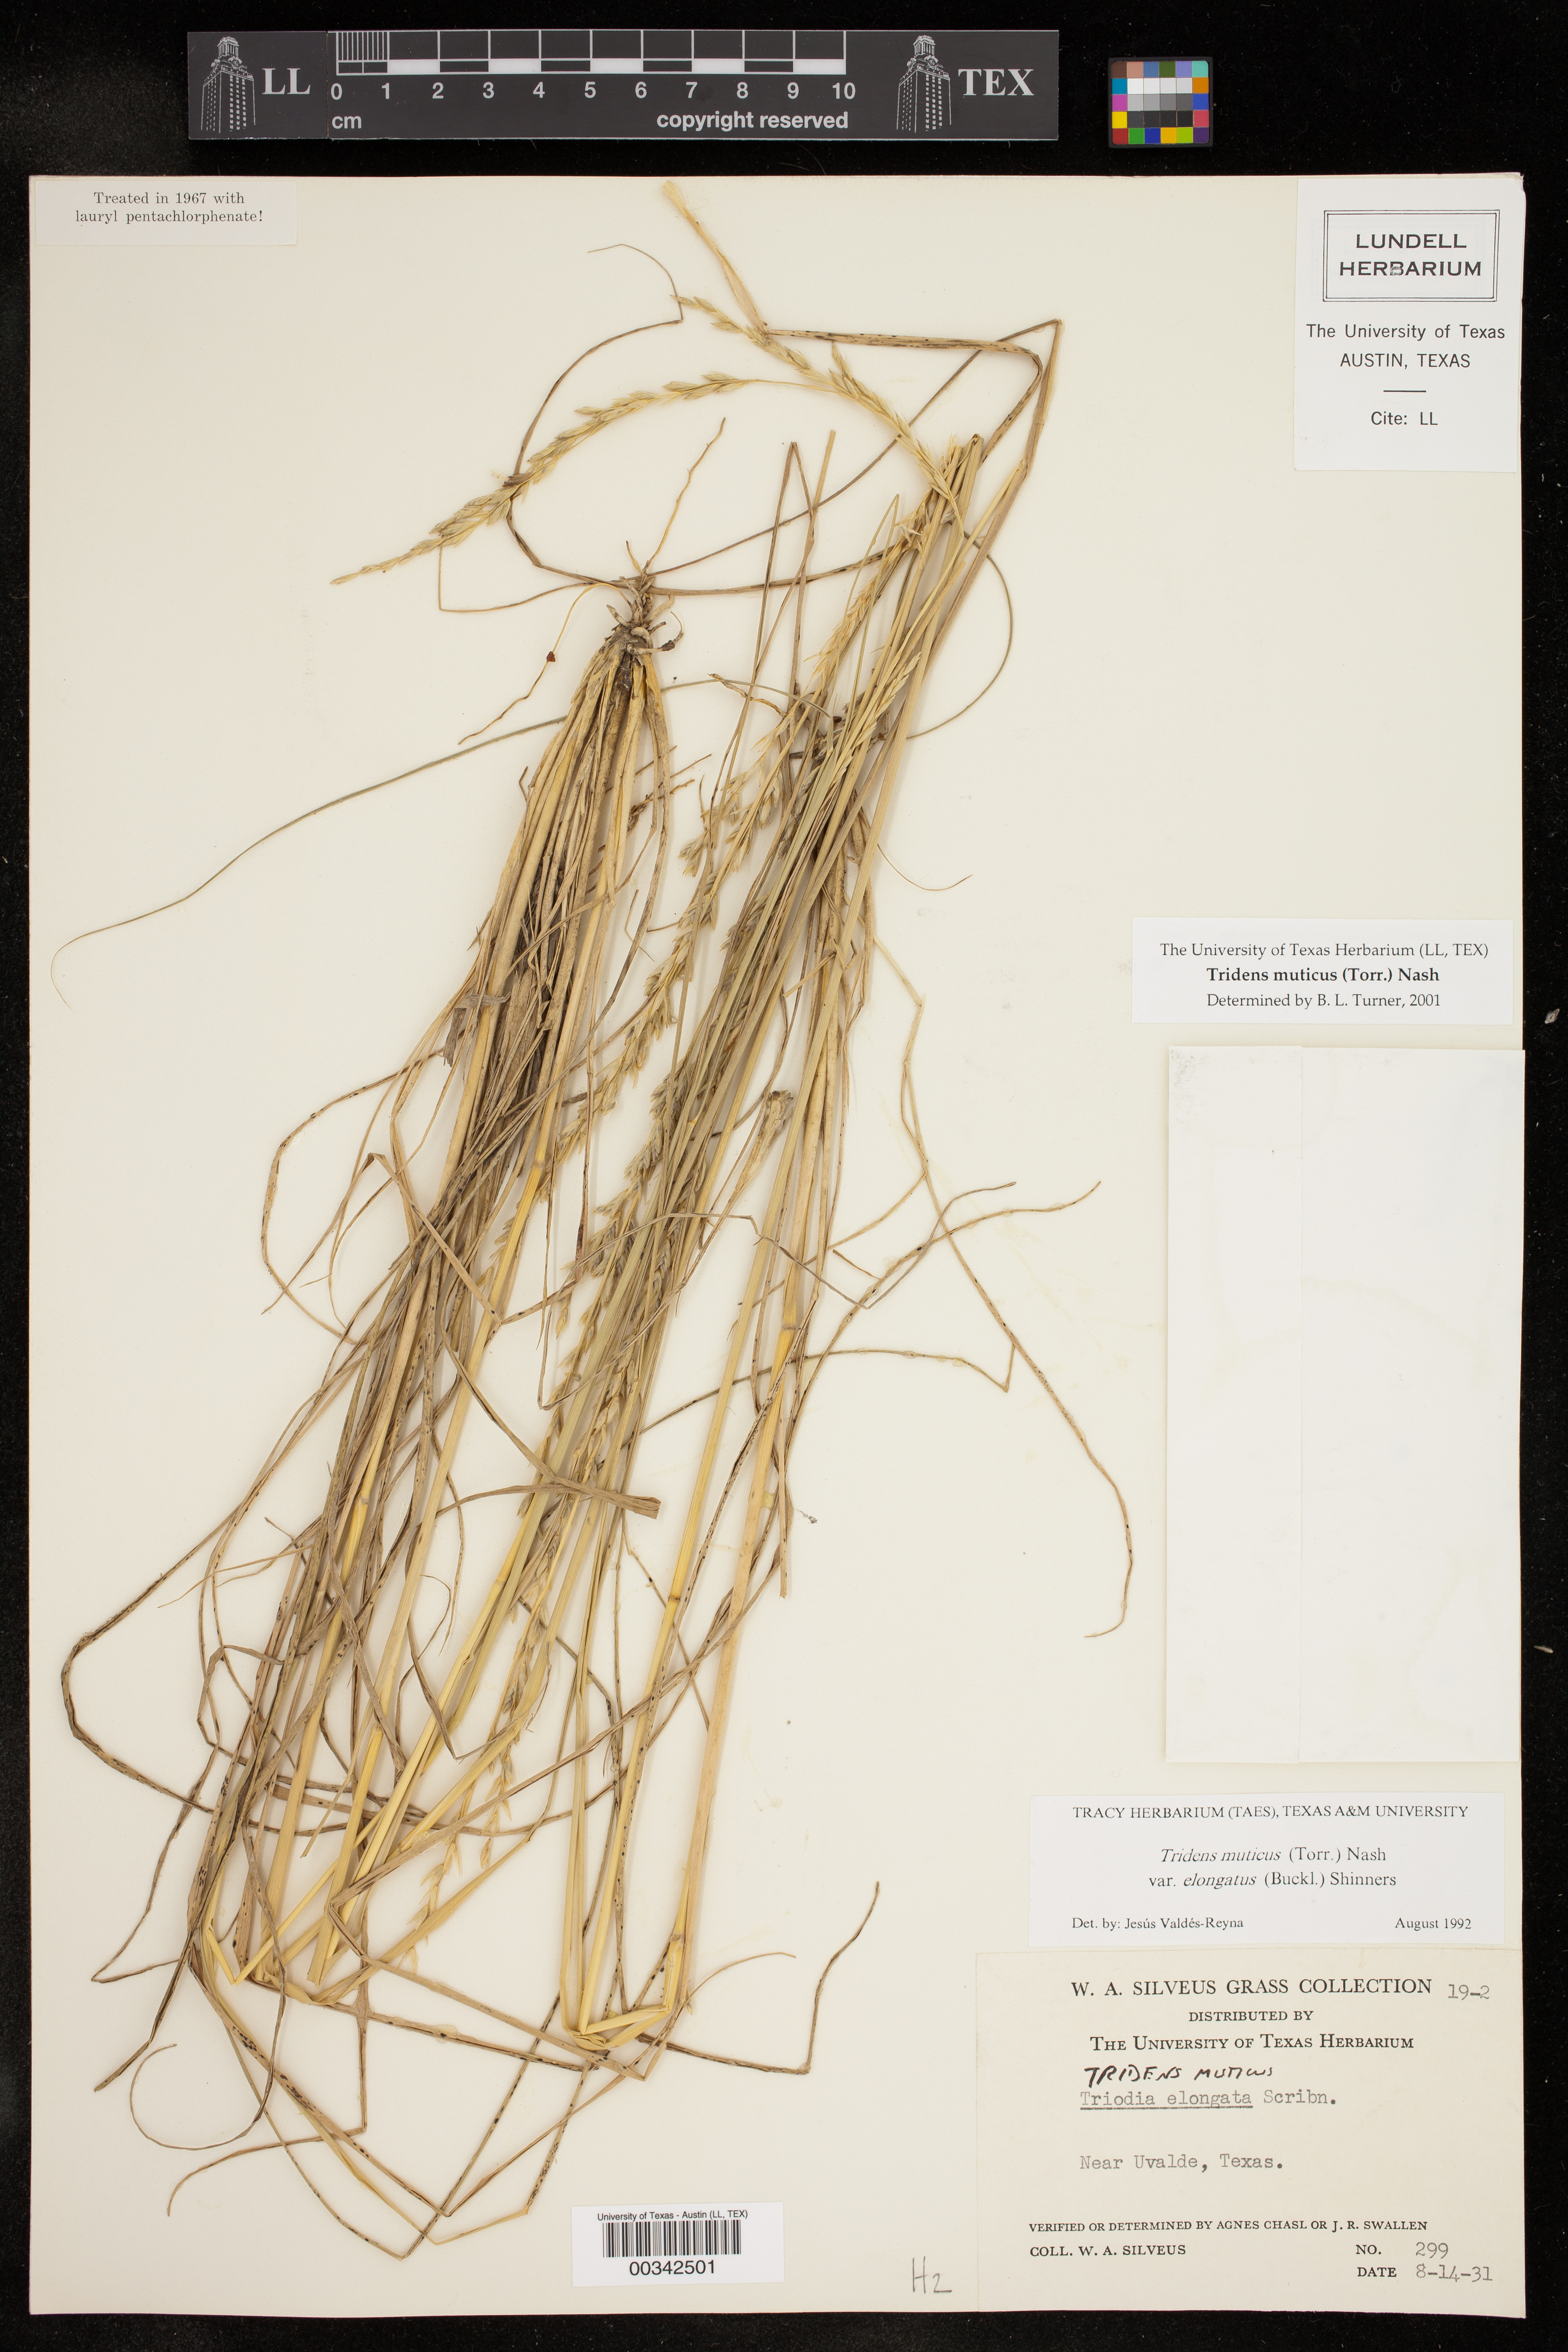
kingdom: Plantae
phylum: Tracheophyta
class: Liliopsida
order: Poales
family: Poaceae
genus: Tridentopsis
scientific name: Tridentopsis mutica
